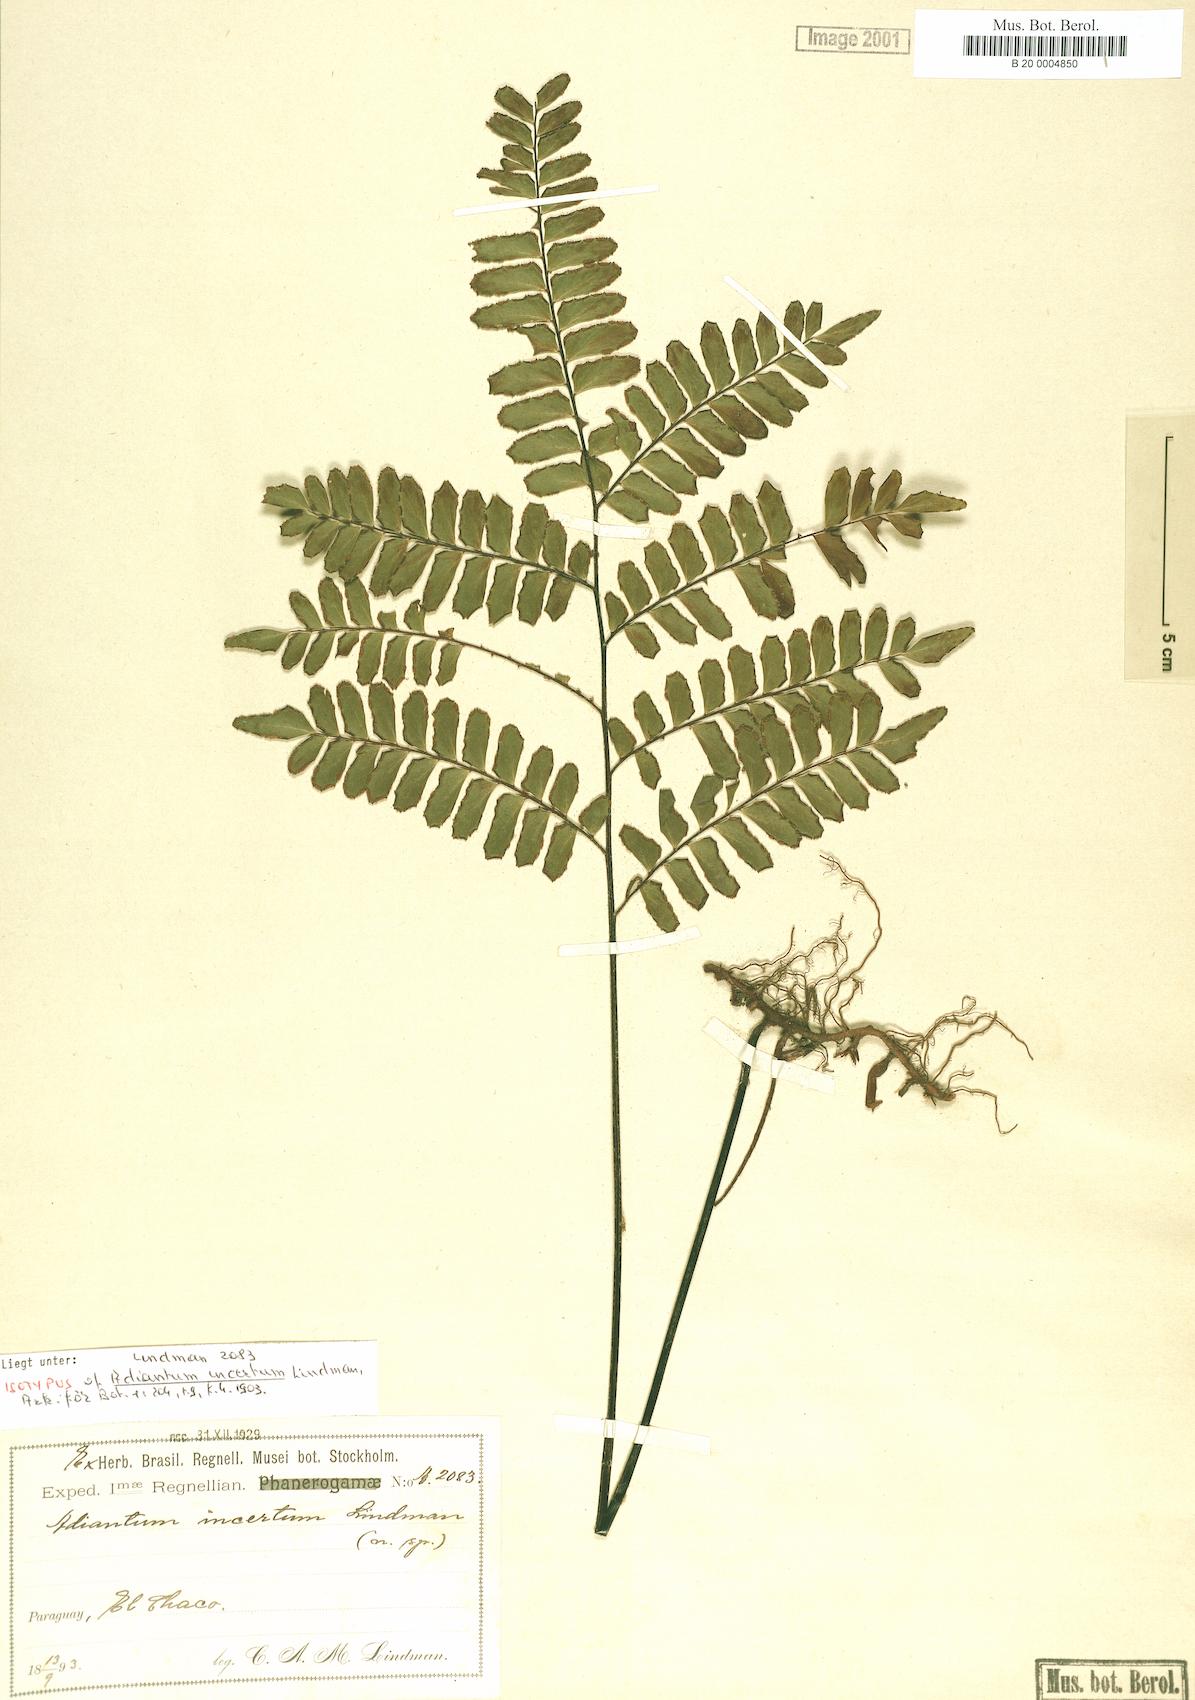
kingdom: Plantae
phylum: Tracheophyta
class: Polypodiopsida
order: Polypodiales
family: Pteridaceae
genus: Adiantum
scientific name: Adiantum incertum
